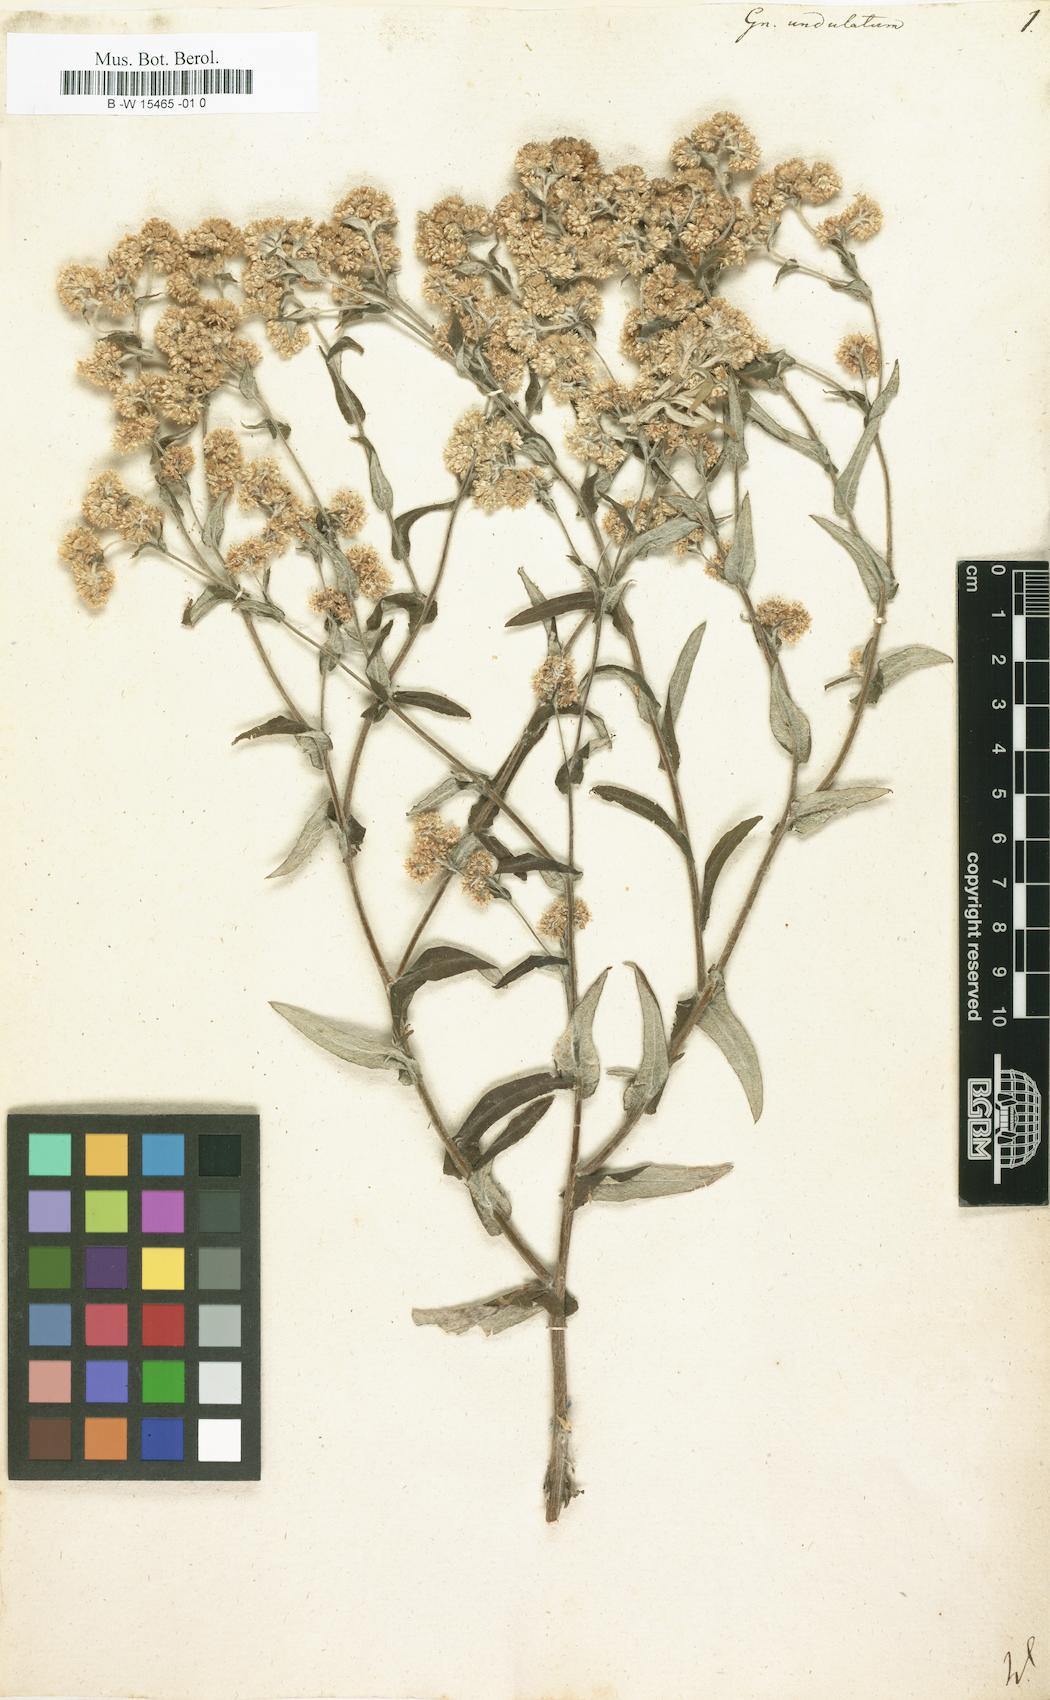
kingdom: Plantae
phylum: Tracheophyta
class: Magnoliopsida
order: Asterales
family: Asteraceae
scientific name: Asteraceae
